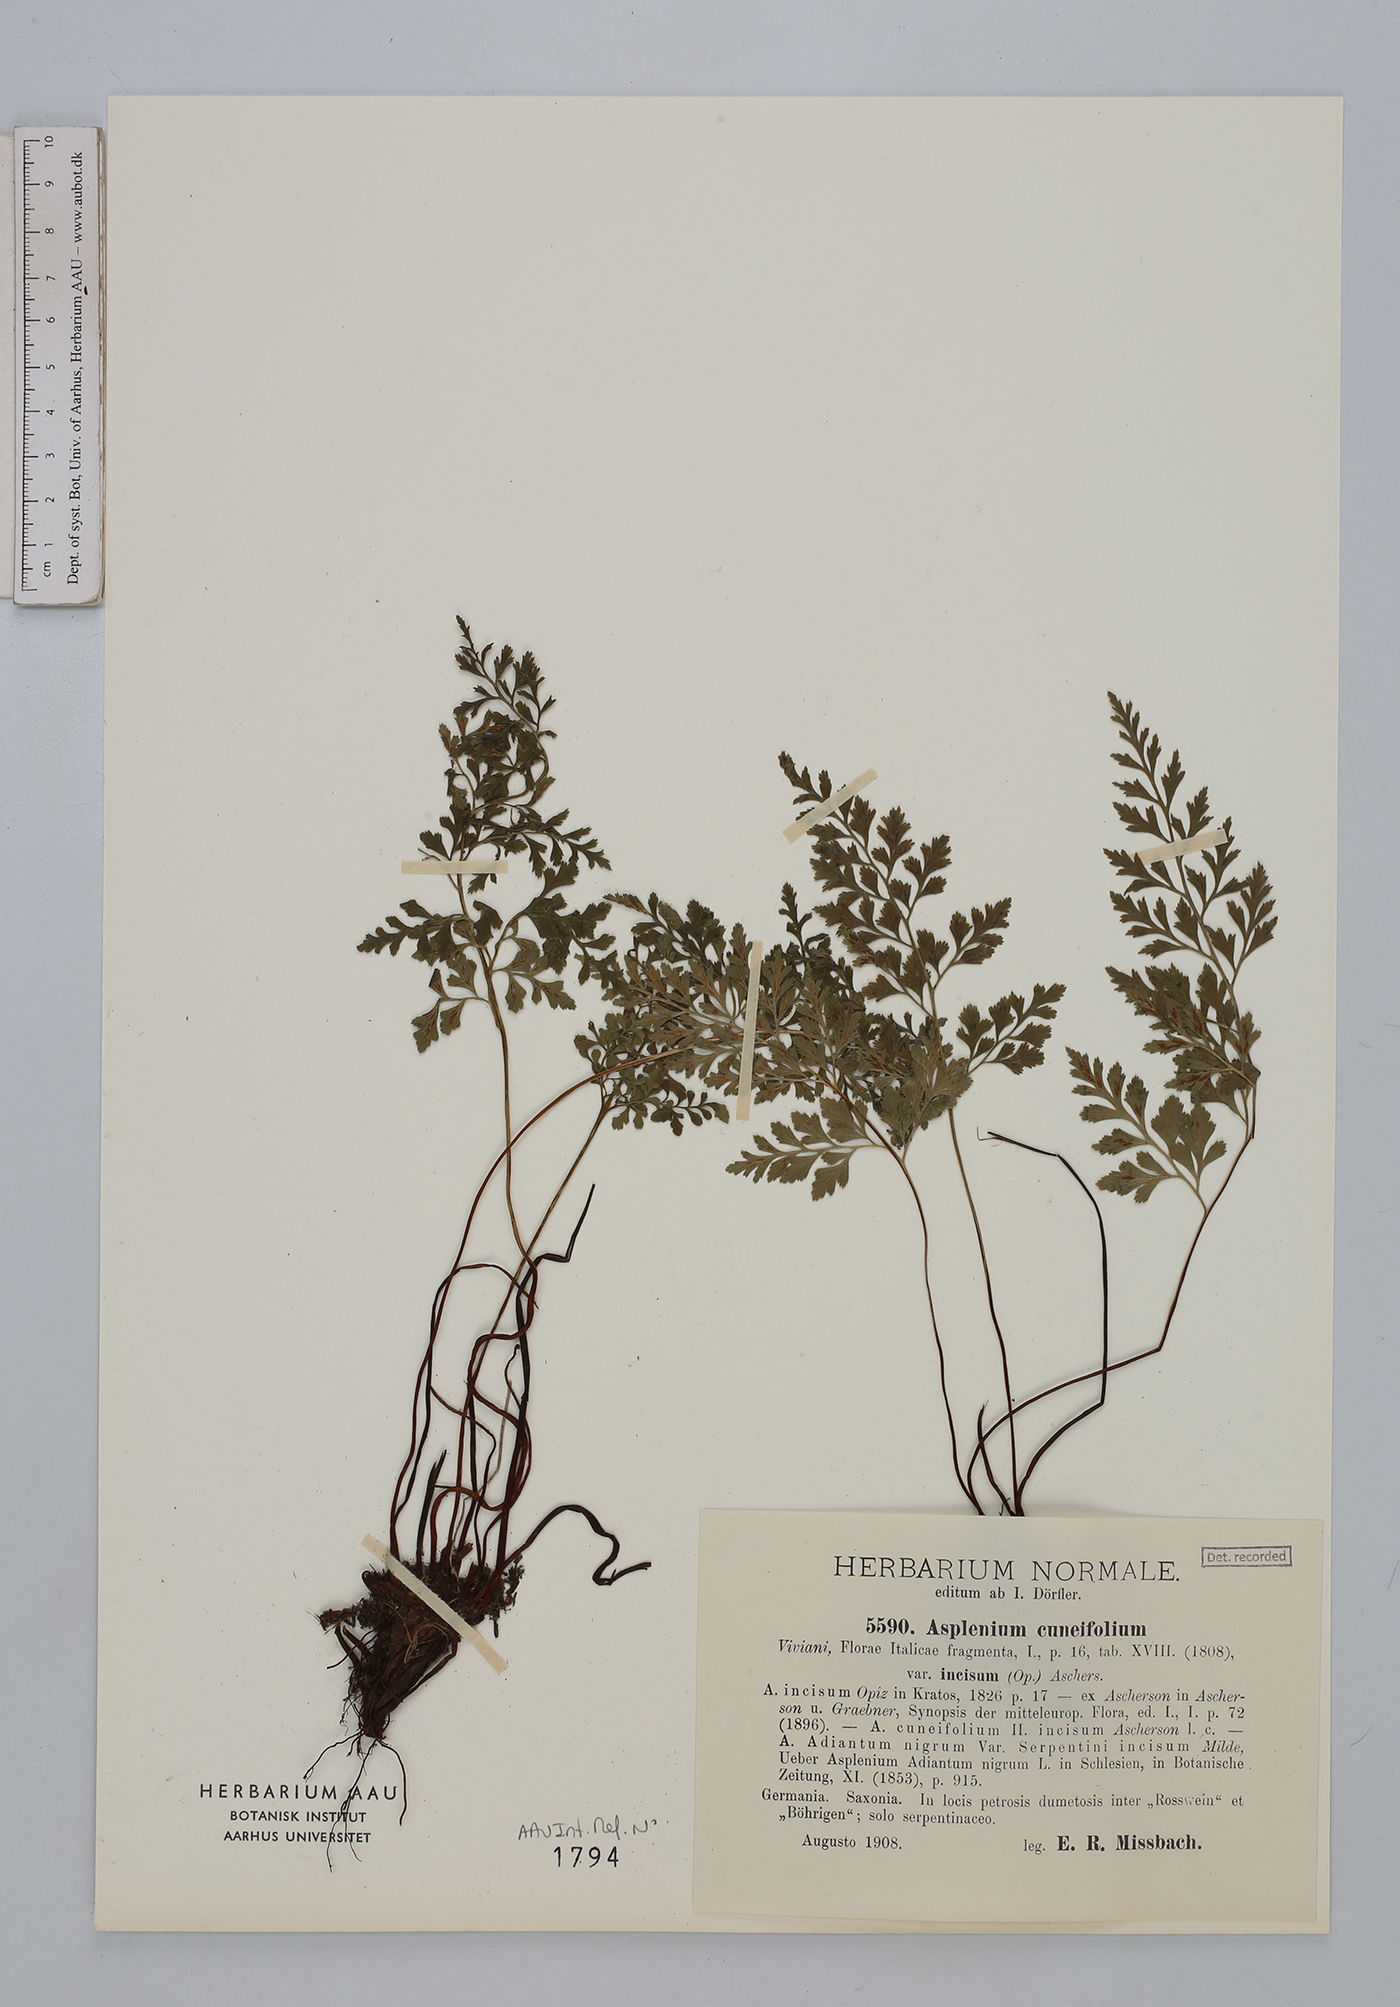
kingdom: Plantae
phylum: Tracheophyta
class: Polypodiopsida
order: Polypodiales
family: Aspleniaceae
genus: Asplenium
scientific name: Asplenium cuneifolium
